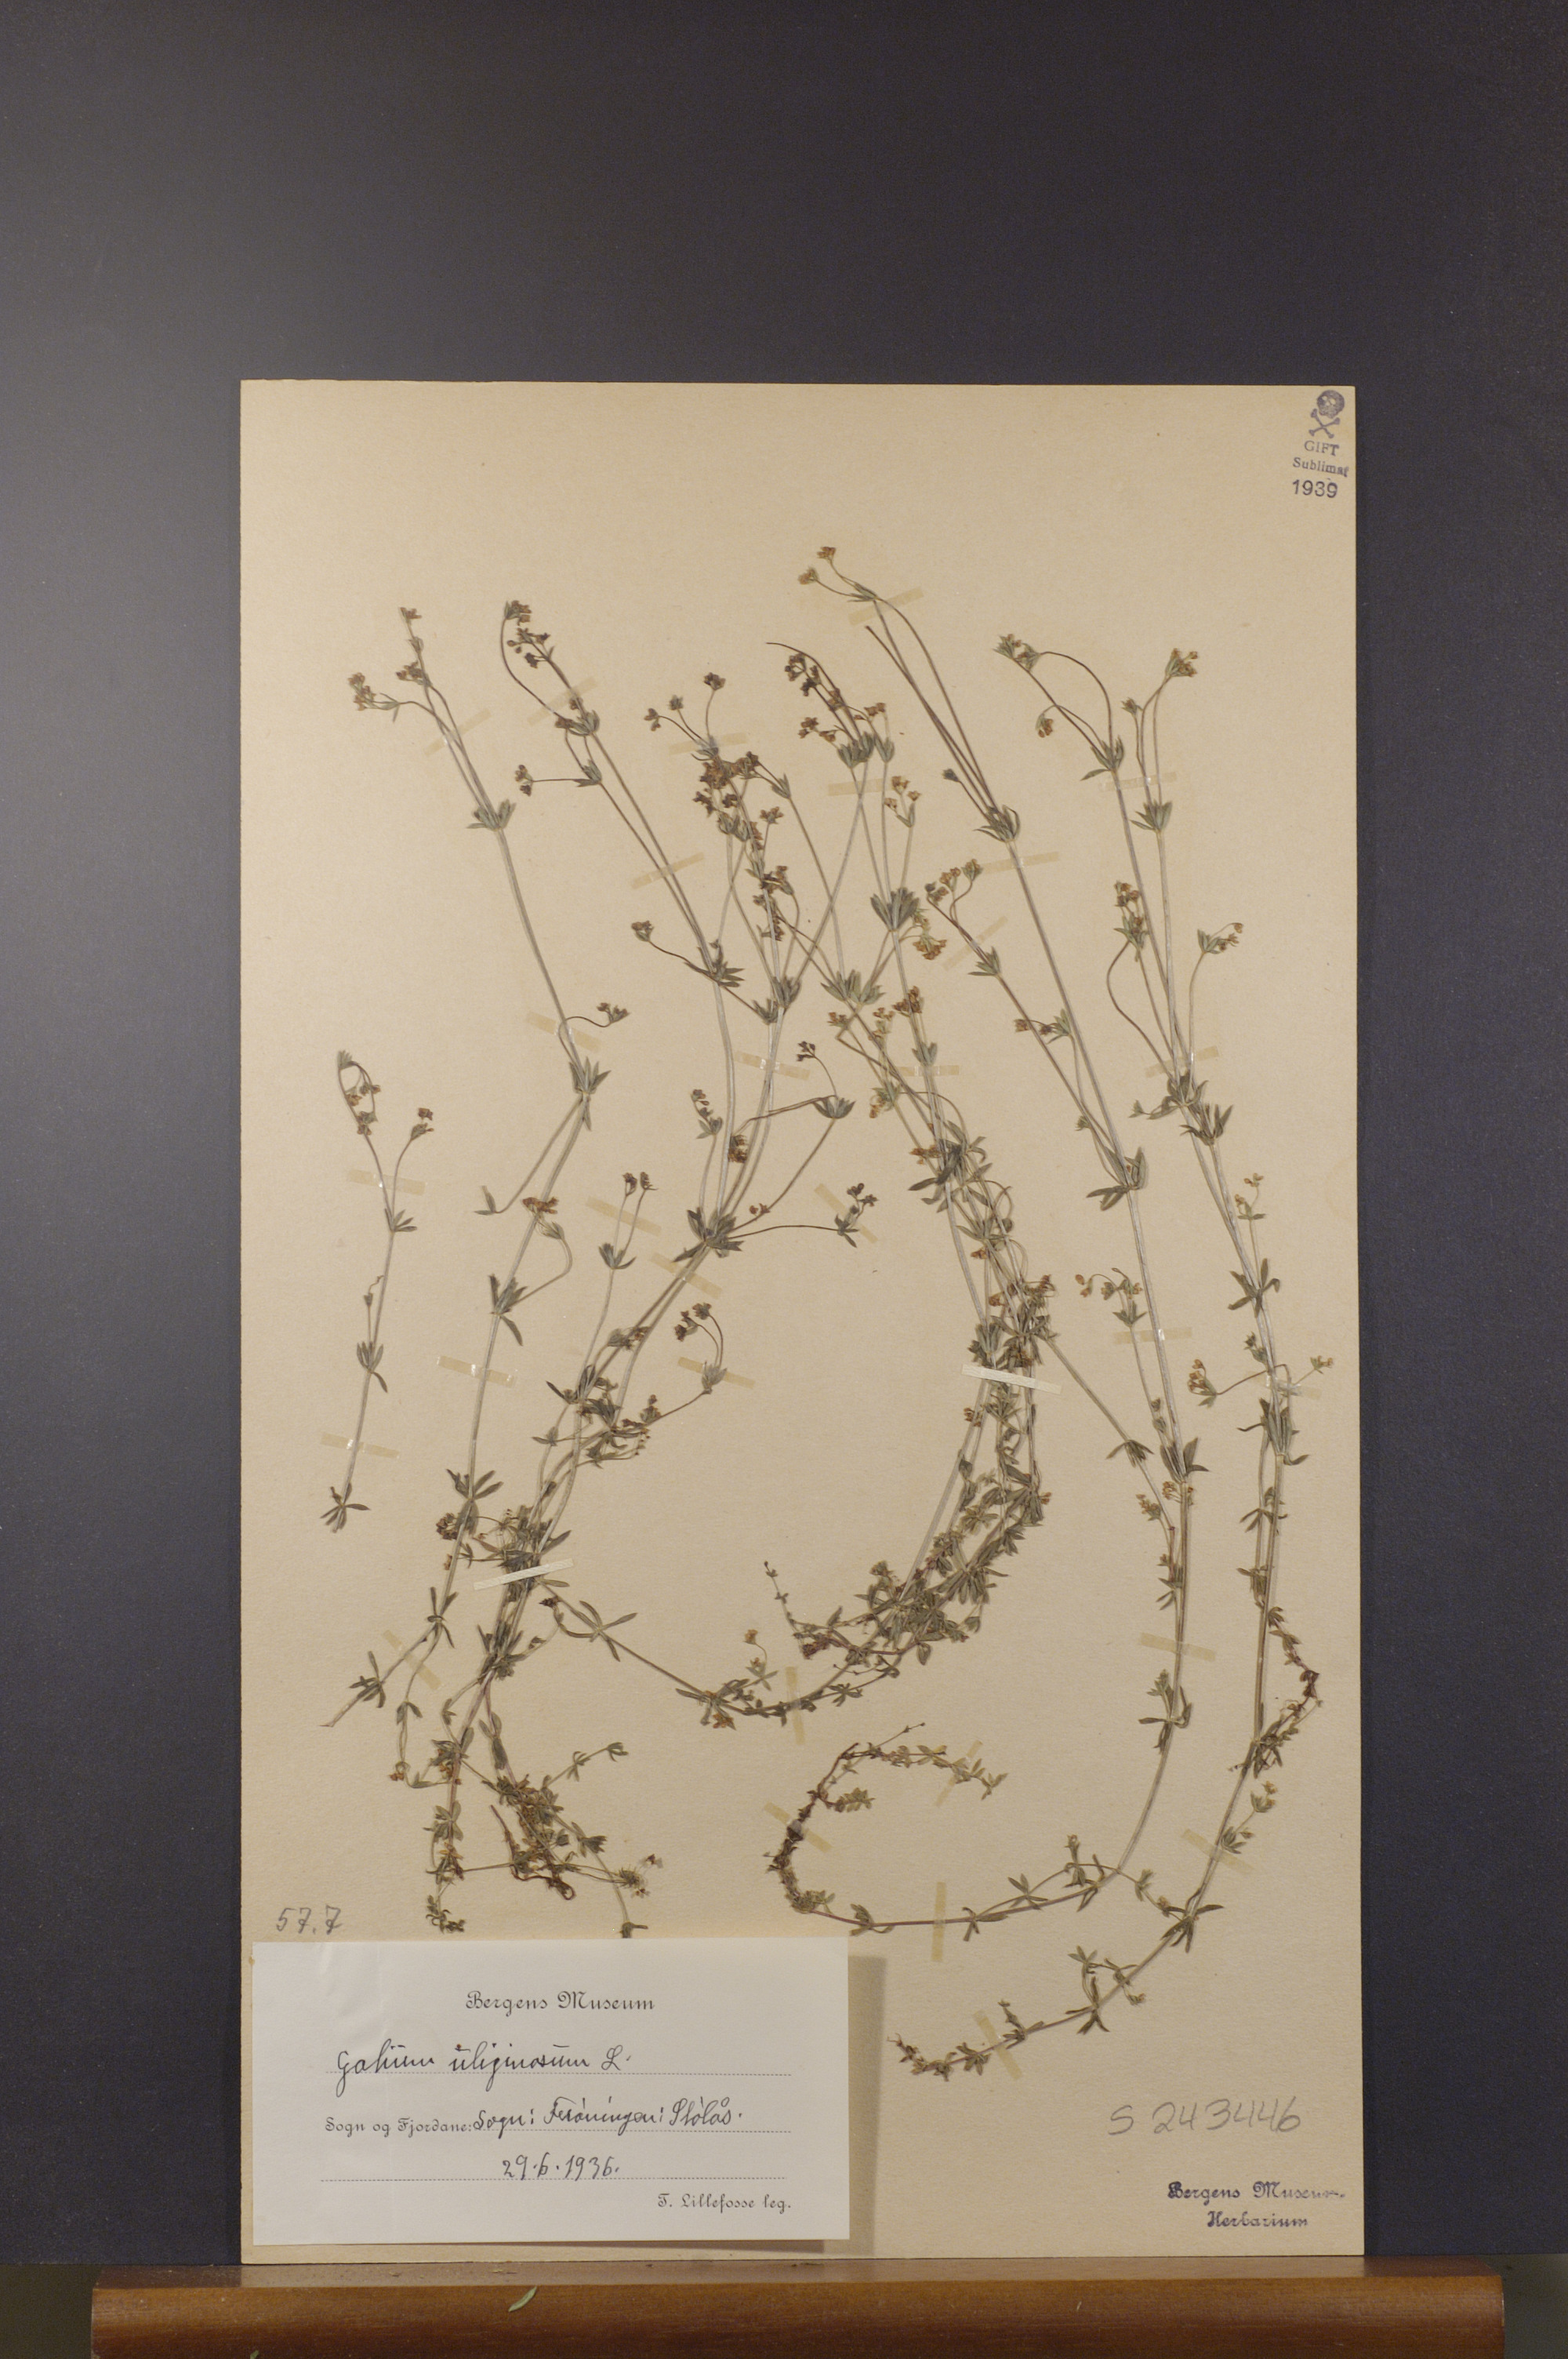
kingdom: Plantae
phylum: Tracheophyta
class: Magnoliopsida
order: Gentianales
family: Rubiaceae
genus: Galium
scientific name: Galium uliginosum
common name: Fen bedstraw
